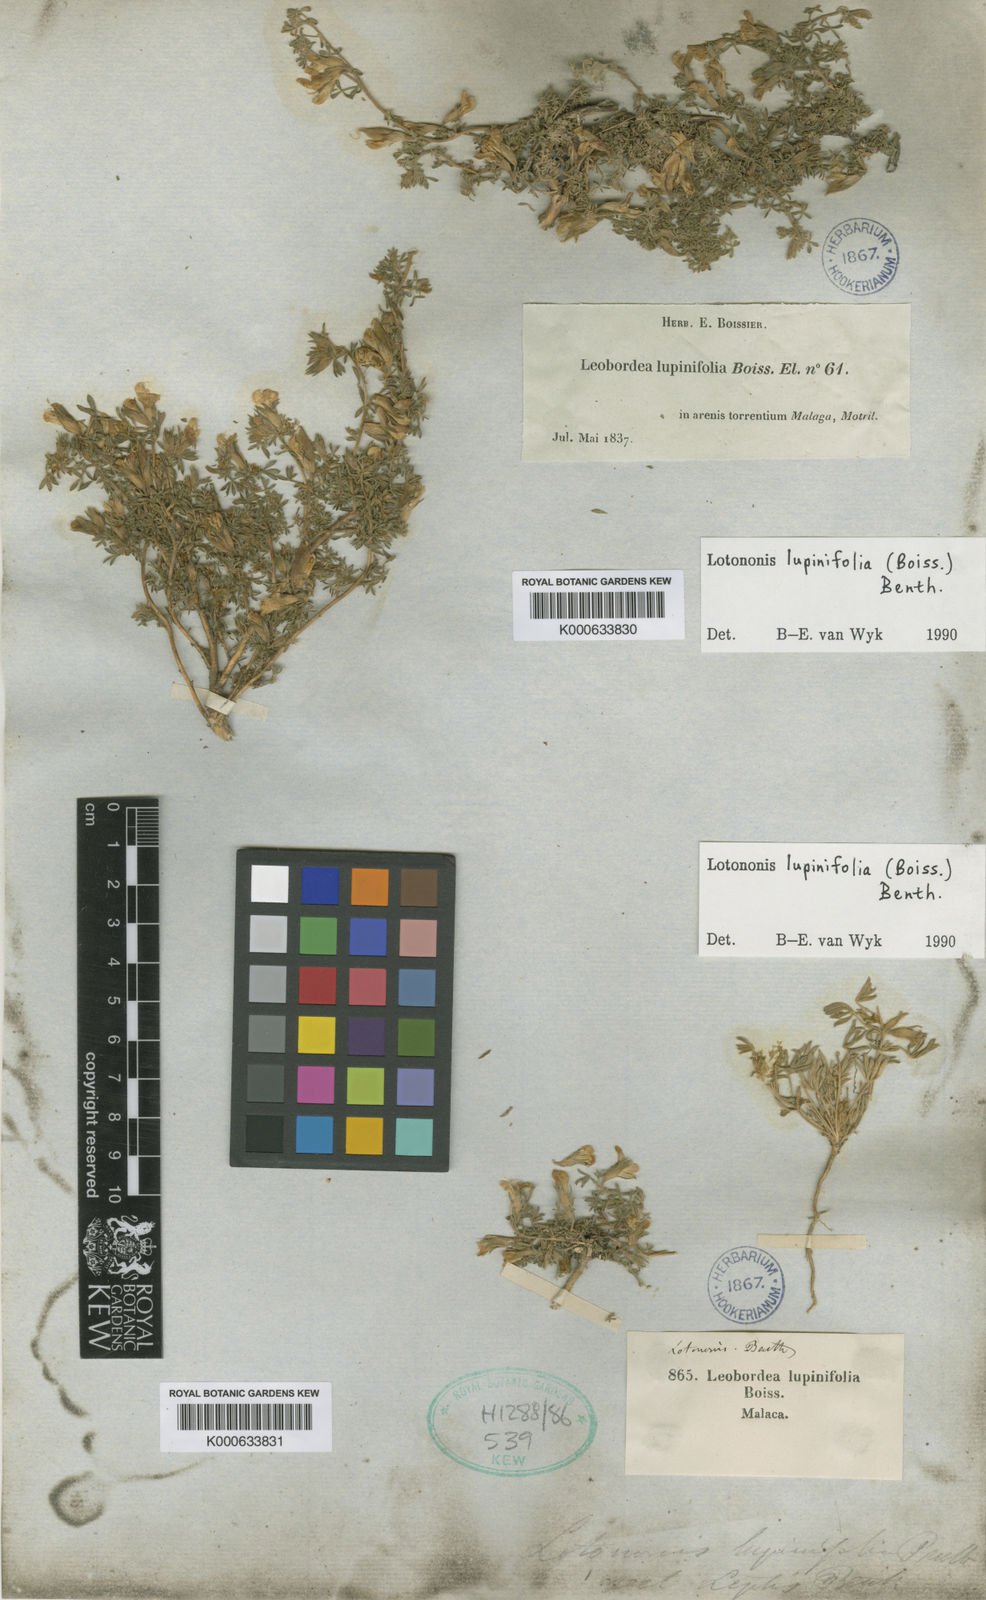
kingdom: Plantae
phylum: Tracheophyta
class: Magnoliopsida
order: Fabales
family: Fabaceae
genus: Leobordea
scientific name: Leobordea lupinifolia
